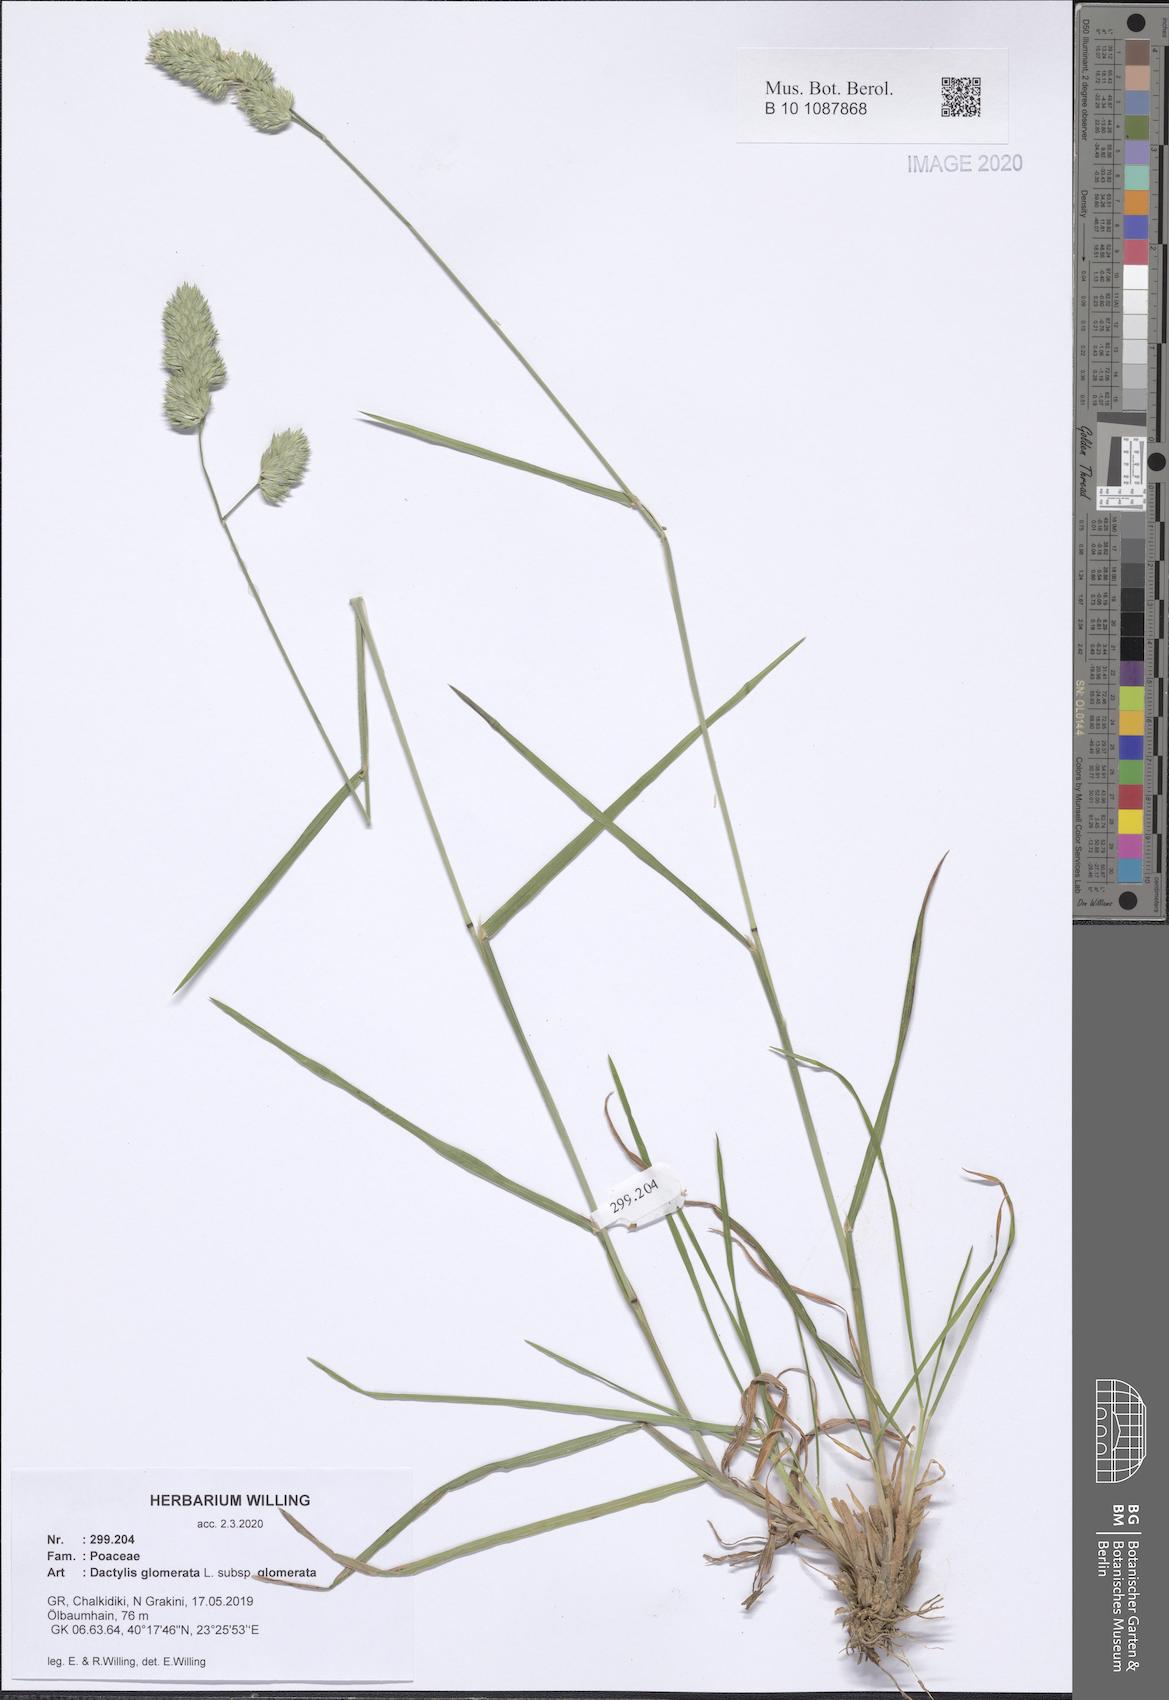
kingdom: Plantae
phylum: Tracheophyta
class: Liliopsida
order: Poales
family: Poaceae
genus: Dactylis
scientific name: Dactylis glomerata
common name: Orchardgrass
